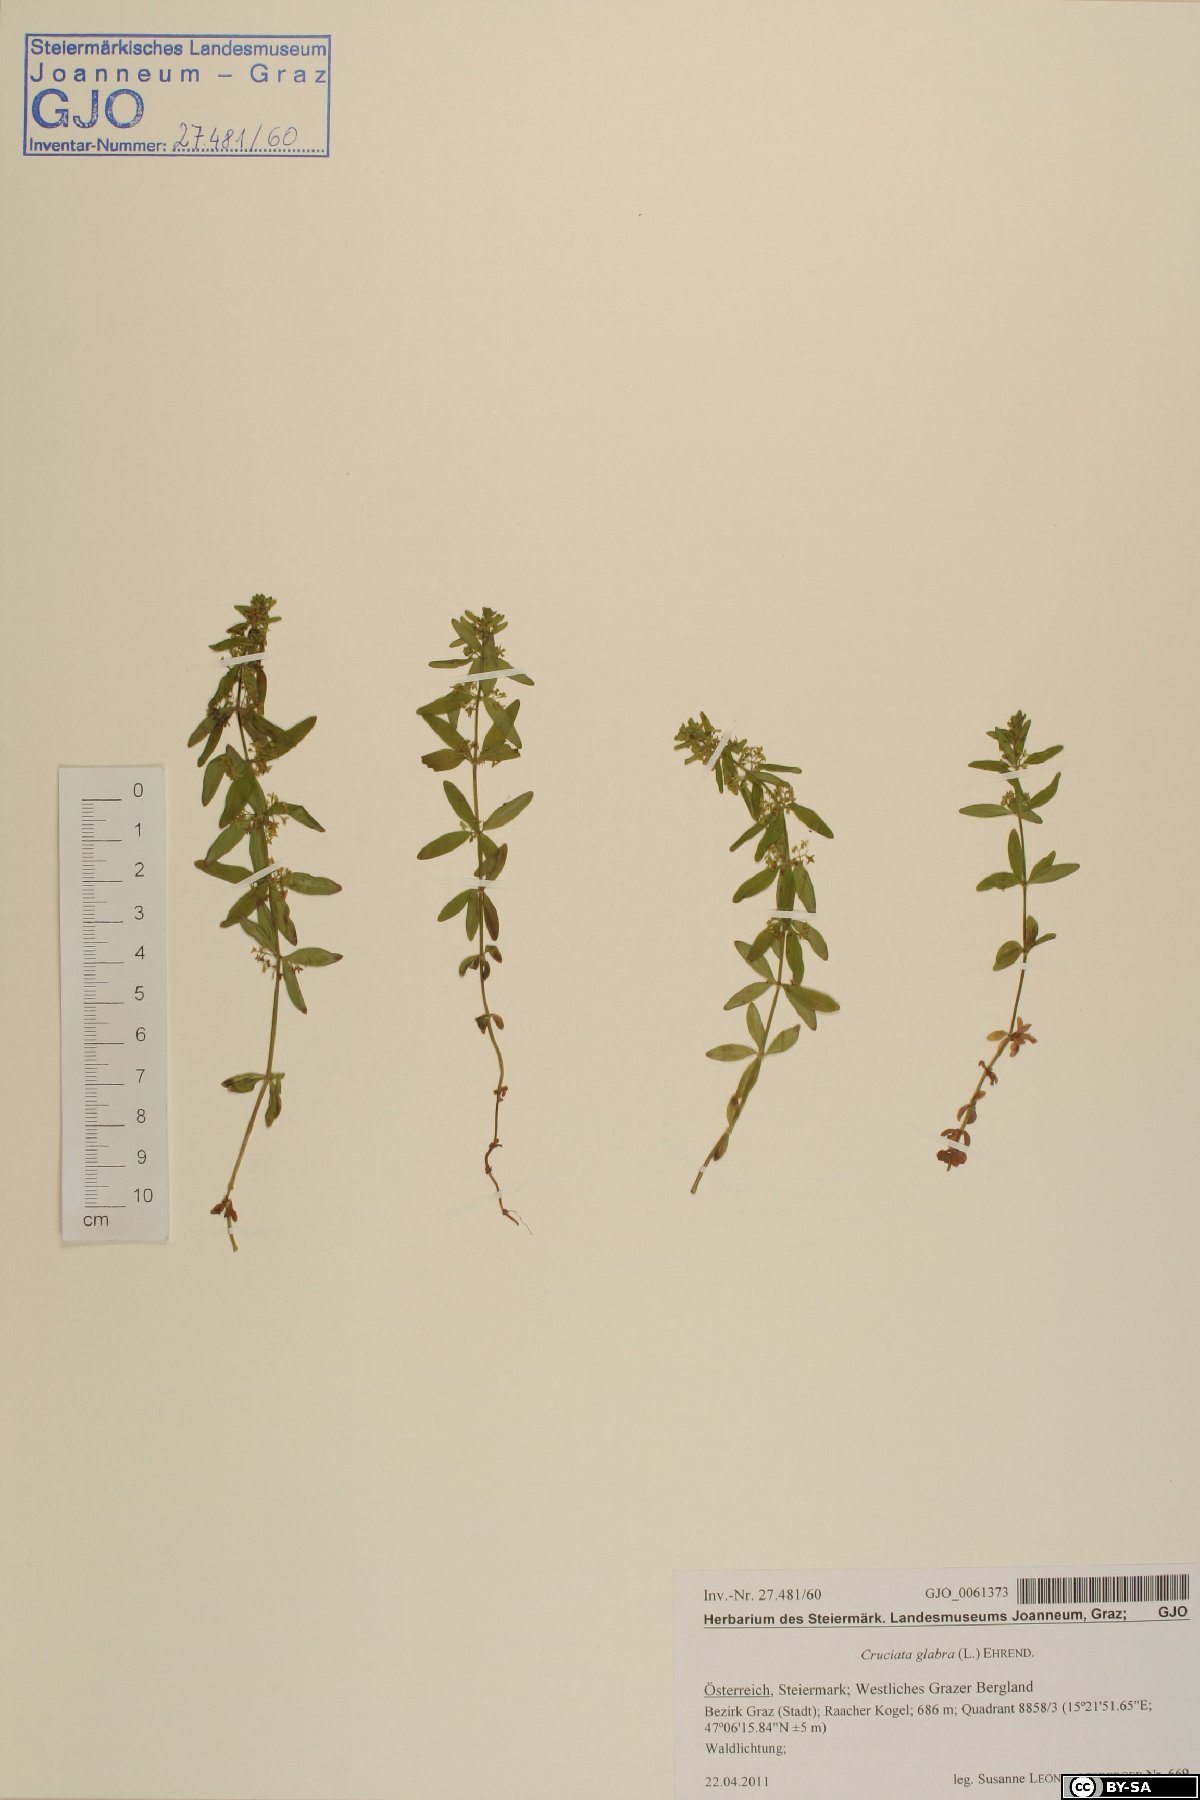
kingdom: Plantae
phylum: Tracheophyta
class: Magnoliopsida
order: Gentianales
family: Rubiaceae
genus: Cruciata
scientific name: Cruciata glabra
